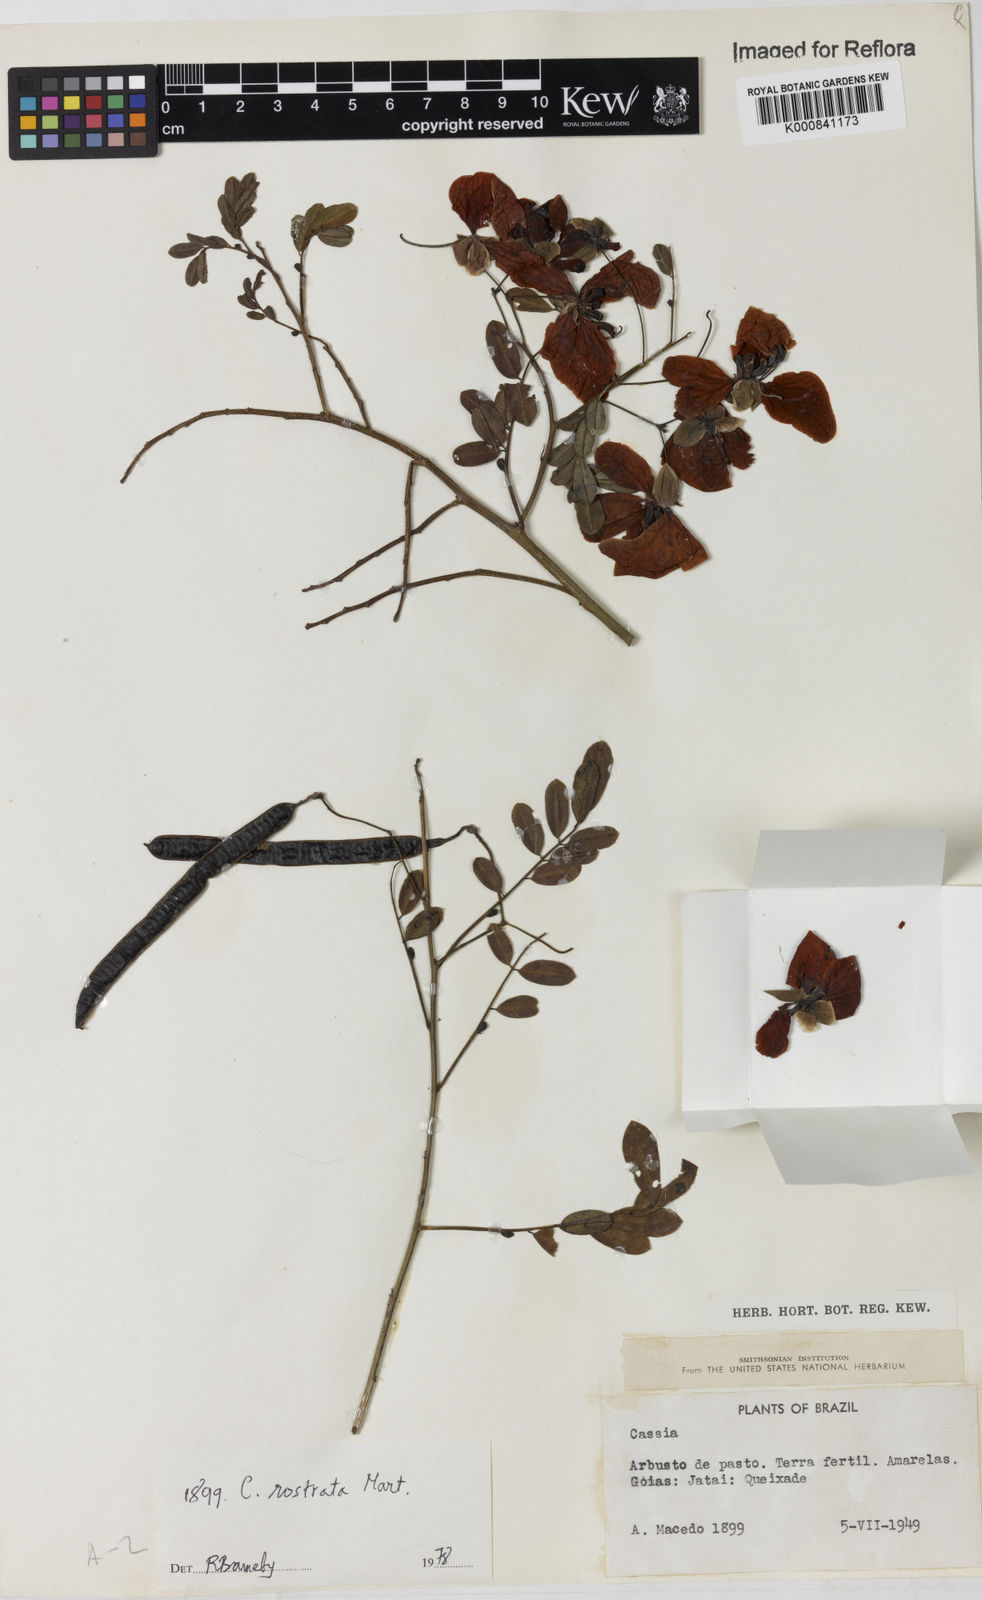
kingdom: Plantae
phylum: Tracheophyta
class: Magnoliopsida
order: Fabales
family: Fabaceae
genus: Senna
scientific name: Senna rostrata
